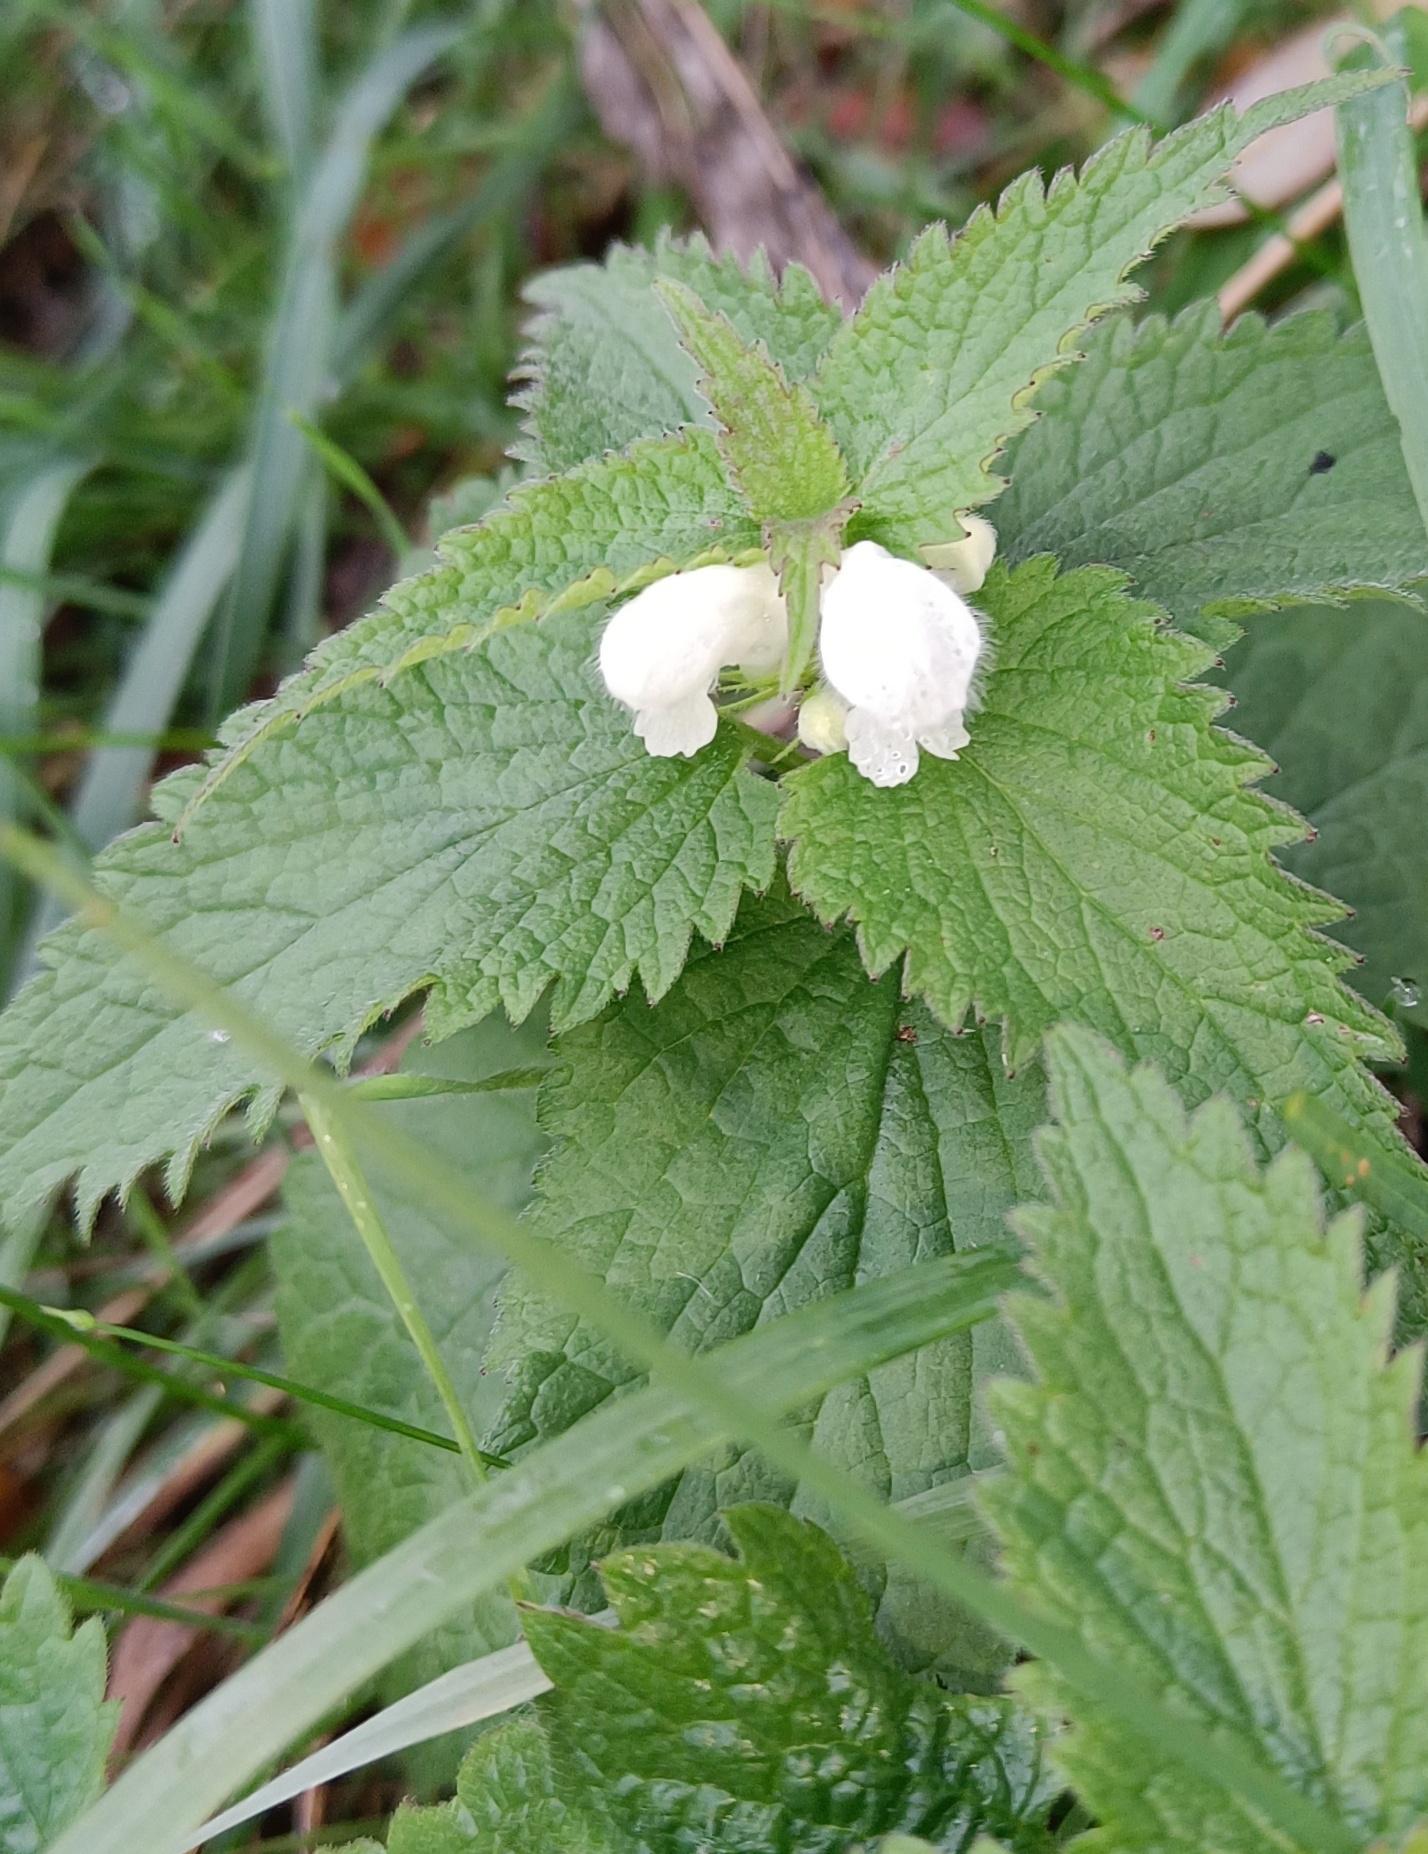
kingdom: Plantae
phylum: Tracheophyta
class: Magnoliopsida
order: Lamiales
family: Lamiaceae
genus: Lamium
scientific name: Lamium album
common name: Døvnælde
